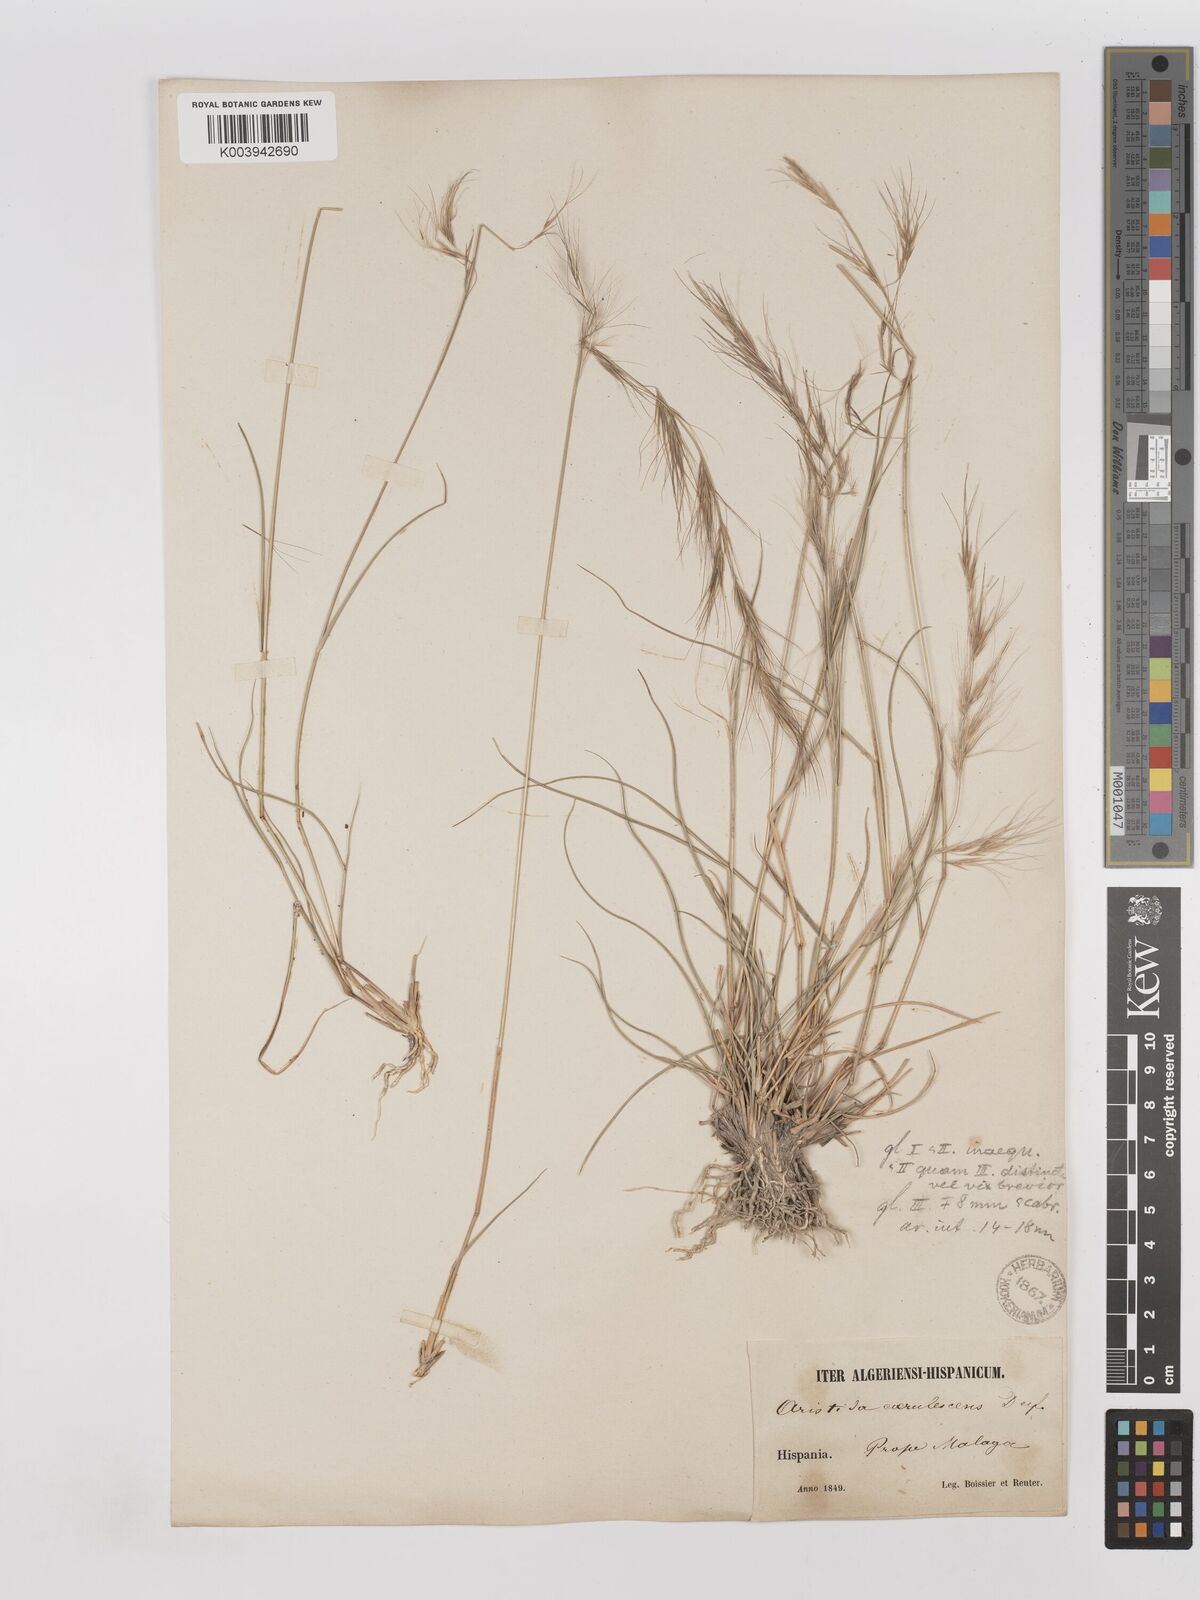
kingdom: Plantae
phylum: Tracheophyta
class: Liliopsida
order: Poales
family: Poaceae
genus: Aristida
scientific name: Aristida adscensionis
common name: Sixweeks threeawn
